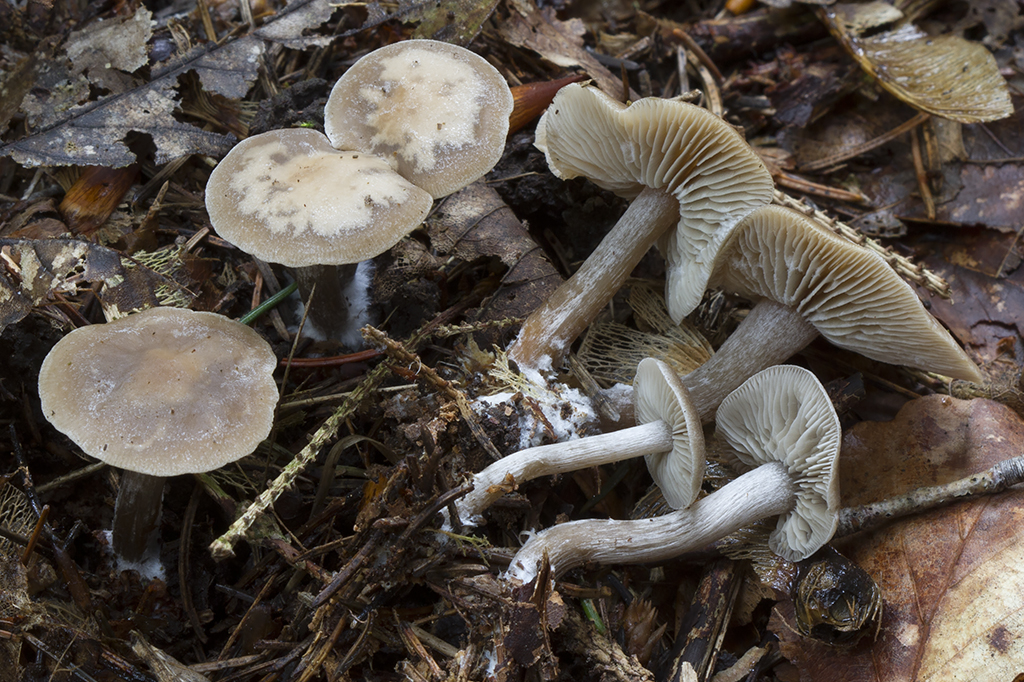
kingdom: Fungi
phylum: Basidiomycota
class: Agaricomycetes
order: Agaricales
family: Lyophyllaceae
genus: Tephrocybe
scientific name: Tephrocybe confusa
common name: trist gråblad
